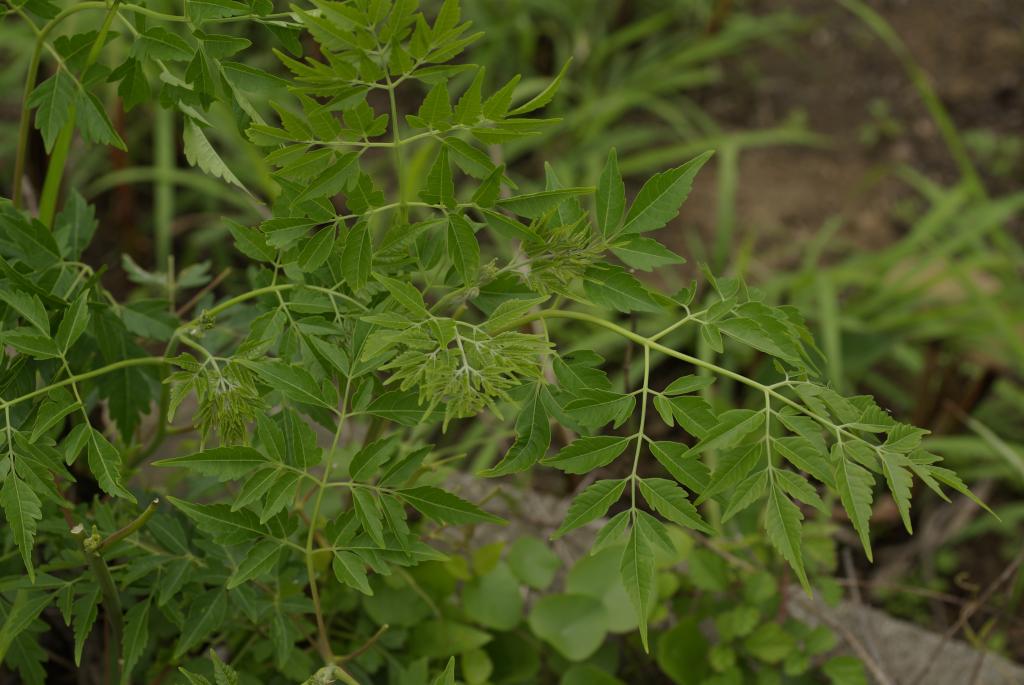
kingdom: Plantae
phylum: Tracheophyta
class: Magnoliopsida
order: Sapindales
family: Meliaceae
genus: Melia
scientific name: Melia azedarach
